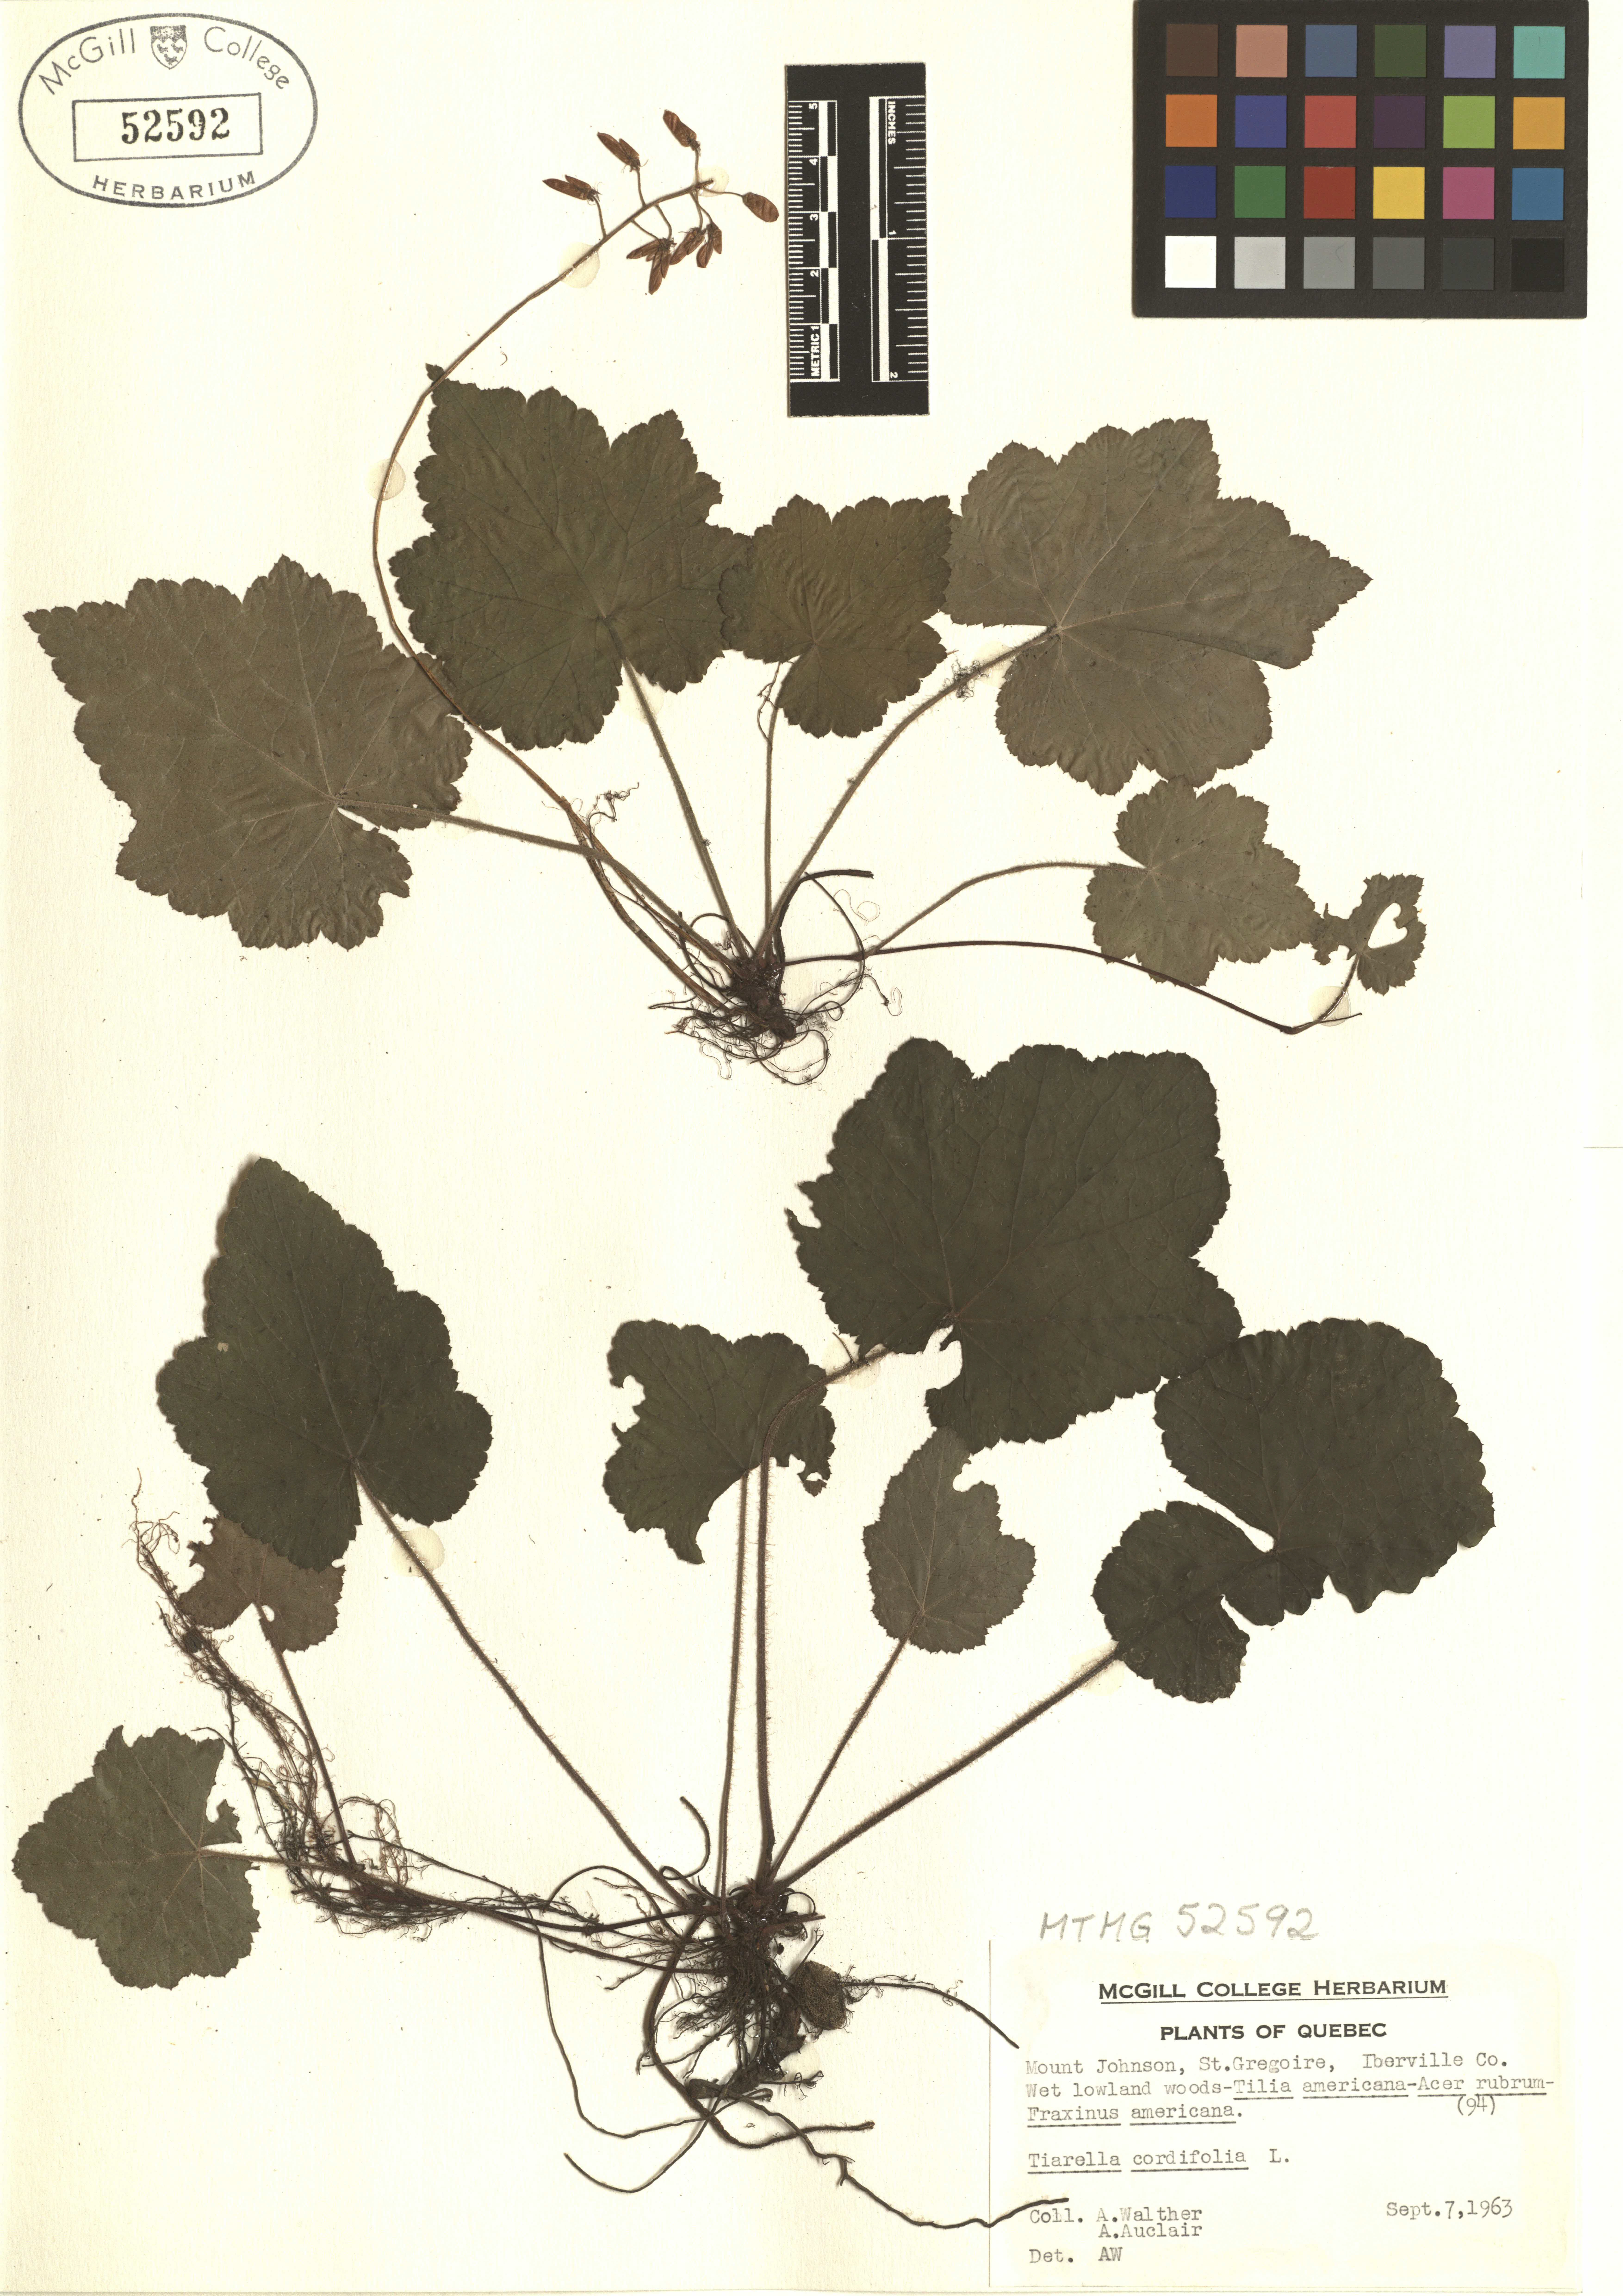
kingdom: Plantae
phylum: Tracheophyta
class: Magnoliopsida
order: Saxifragales
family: Saxifragaceae
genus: Tiarella
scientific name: Tiarella cordifolia
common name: Foamflower
